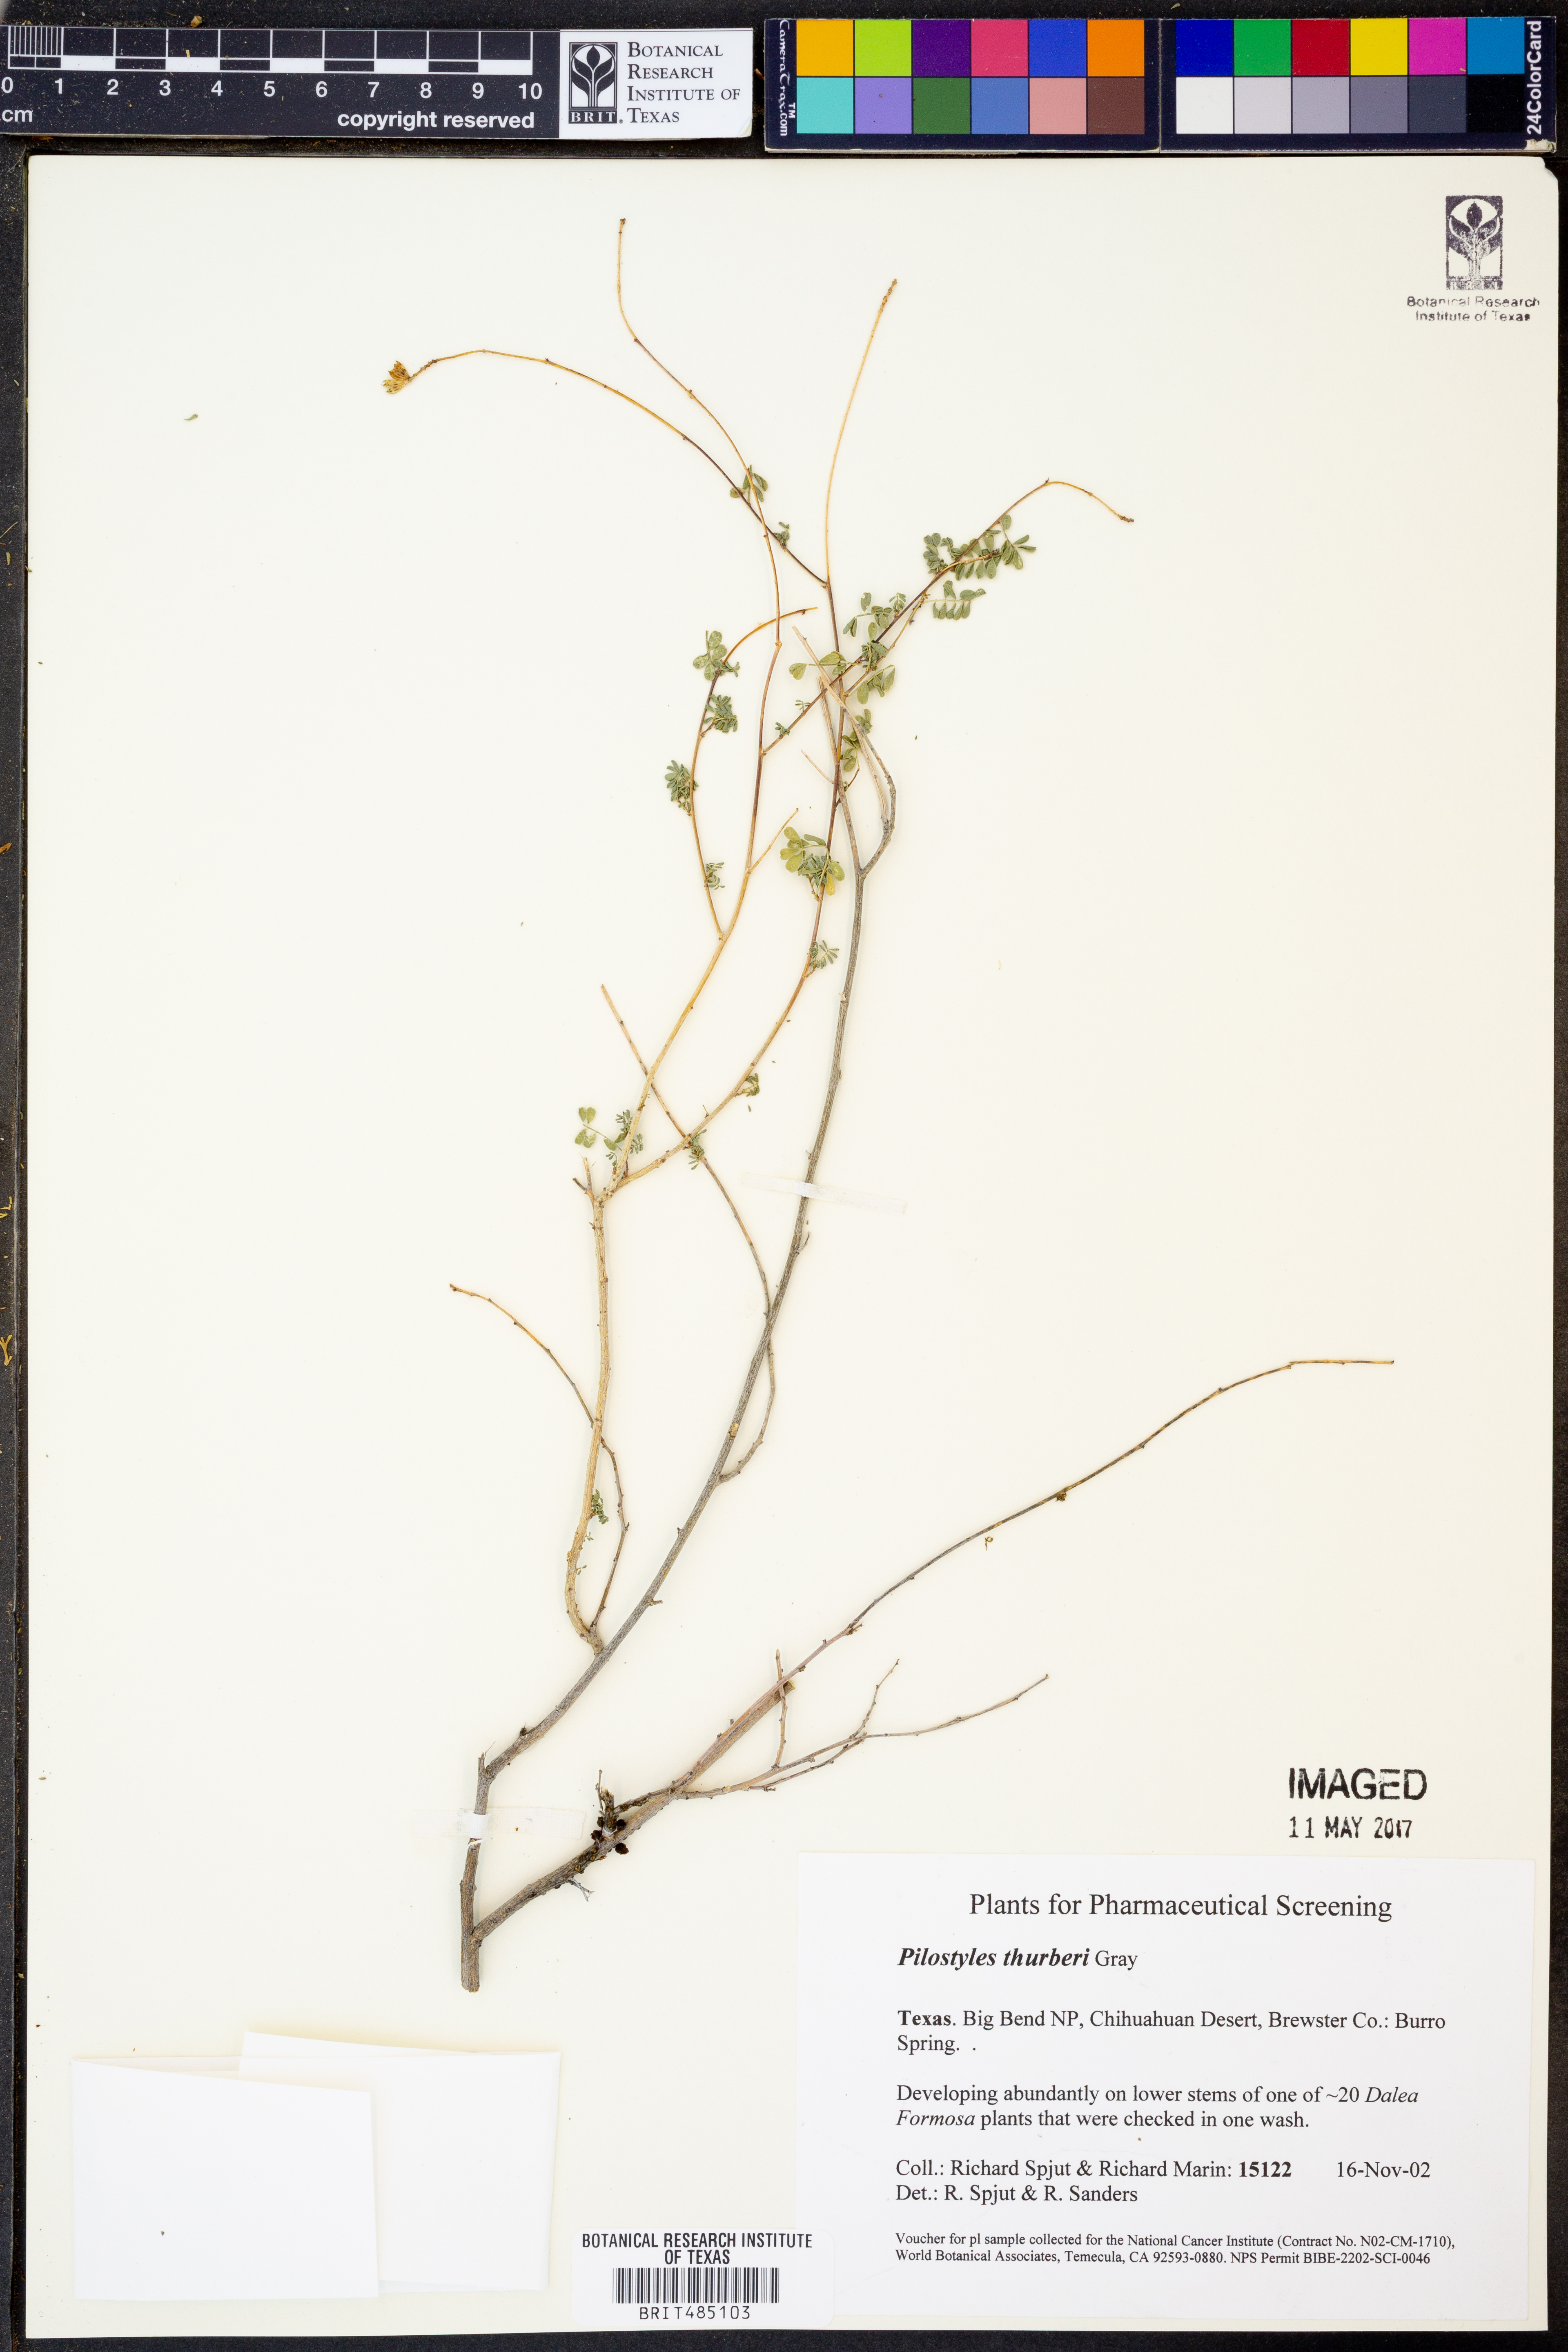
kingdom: Plantae
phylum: Tracheophyta
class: Magnoliopsida
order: Cucurbitales
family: Apodanthaceae
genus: Pilostyles
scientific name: Pilostyles thurberi
